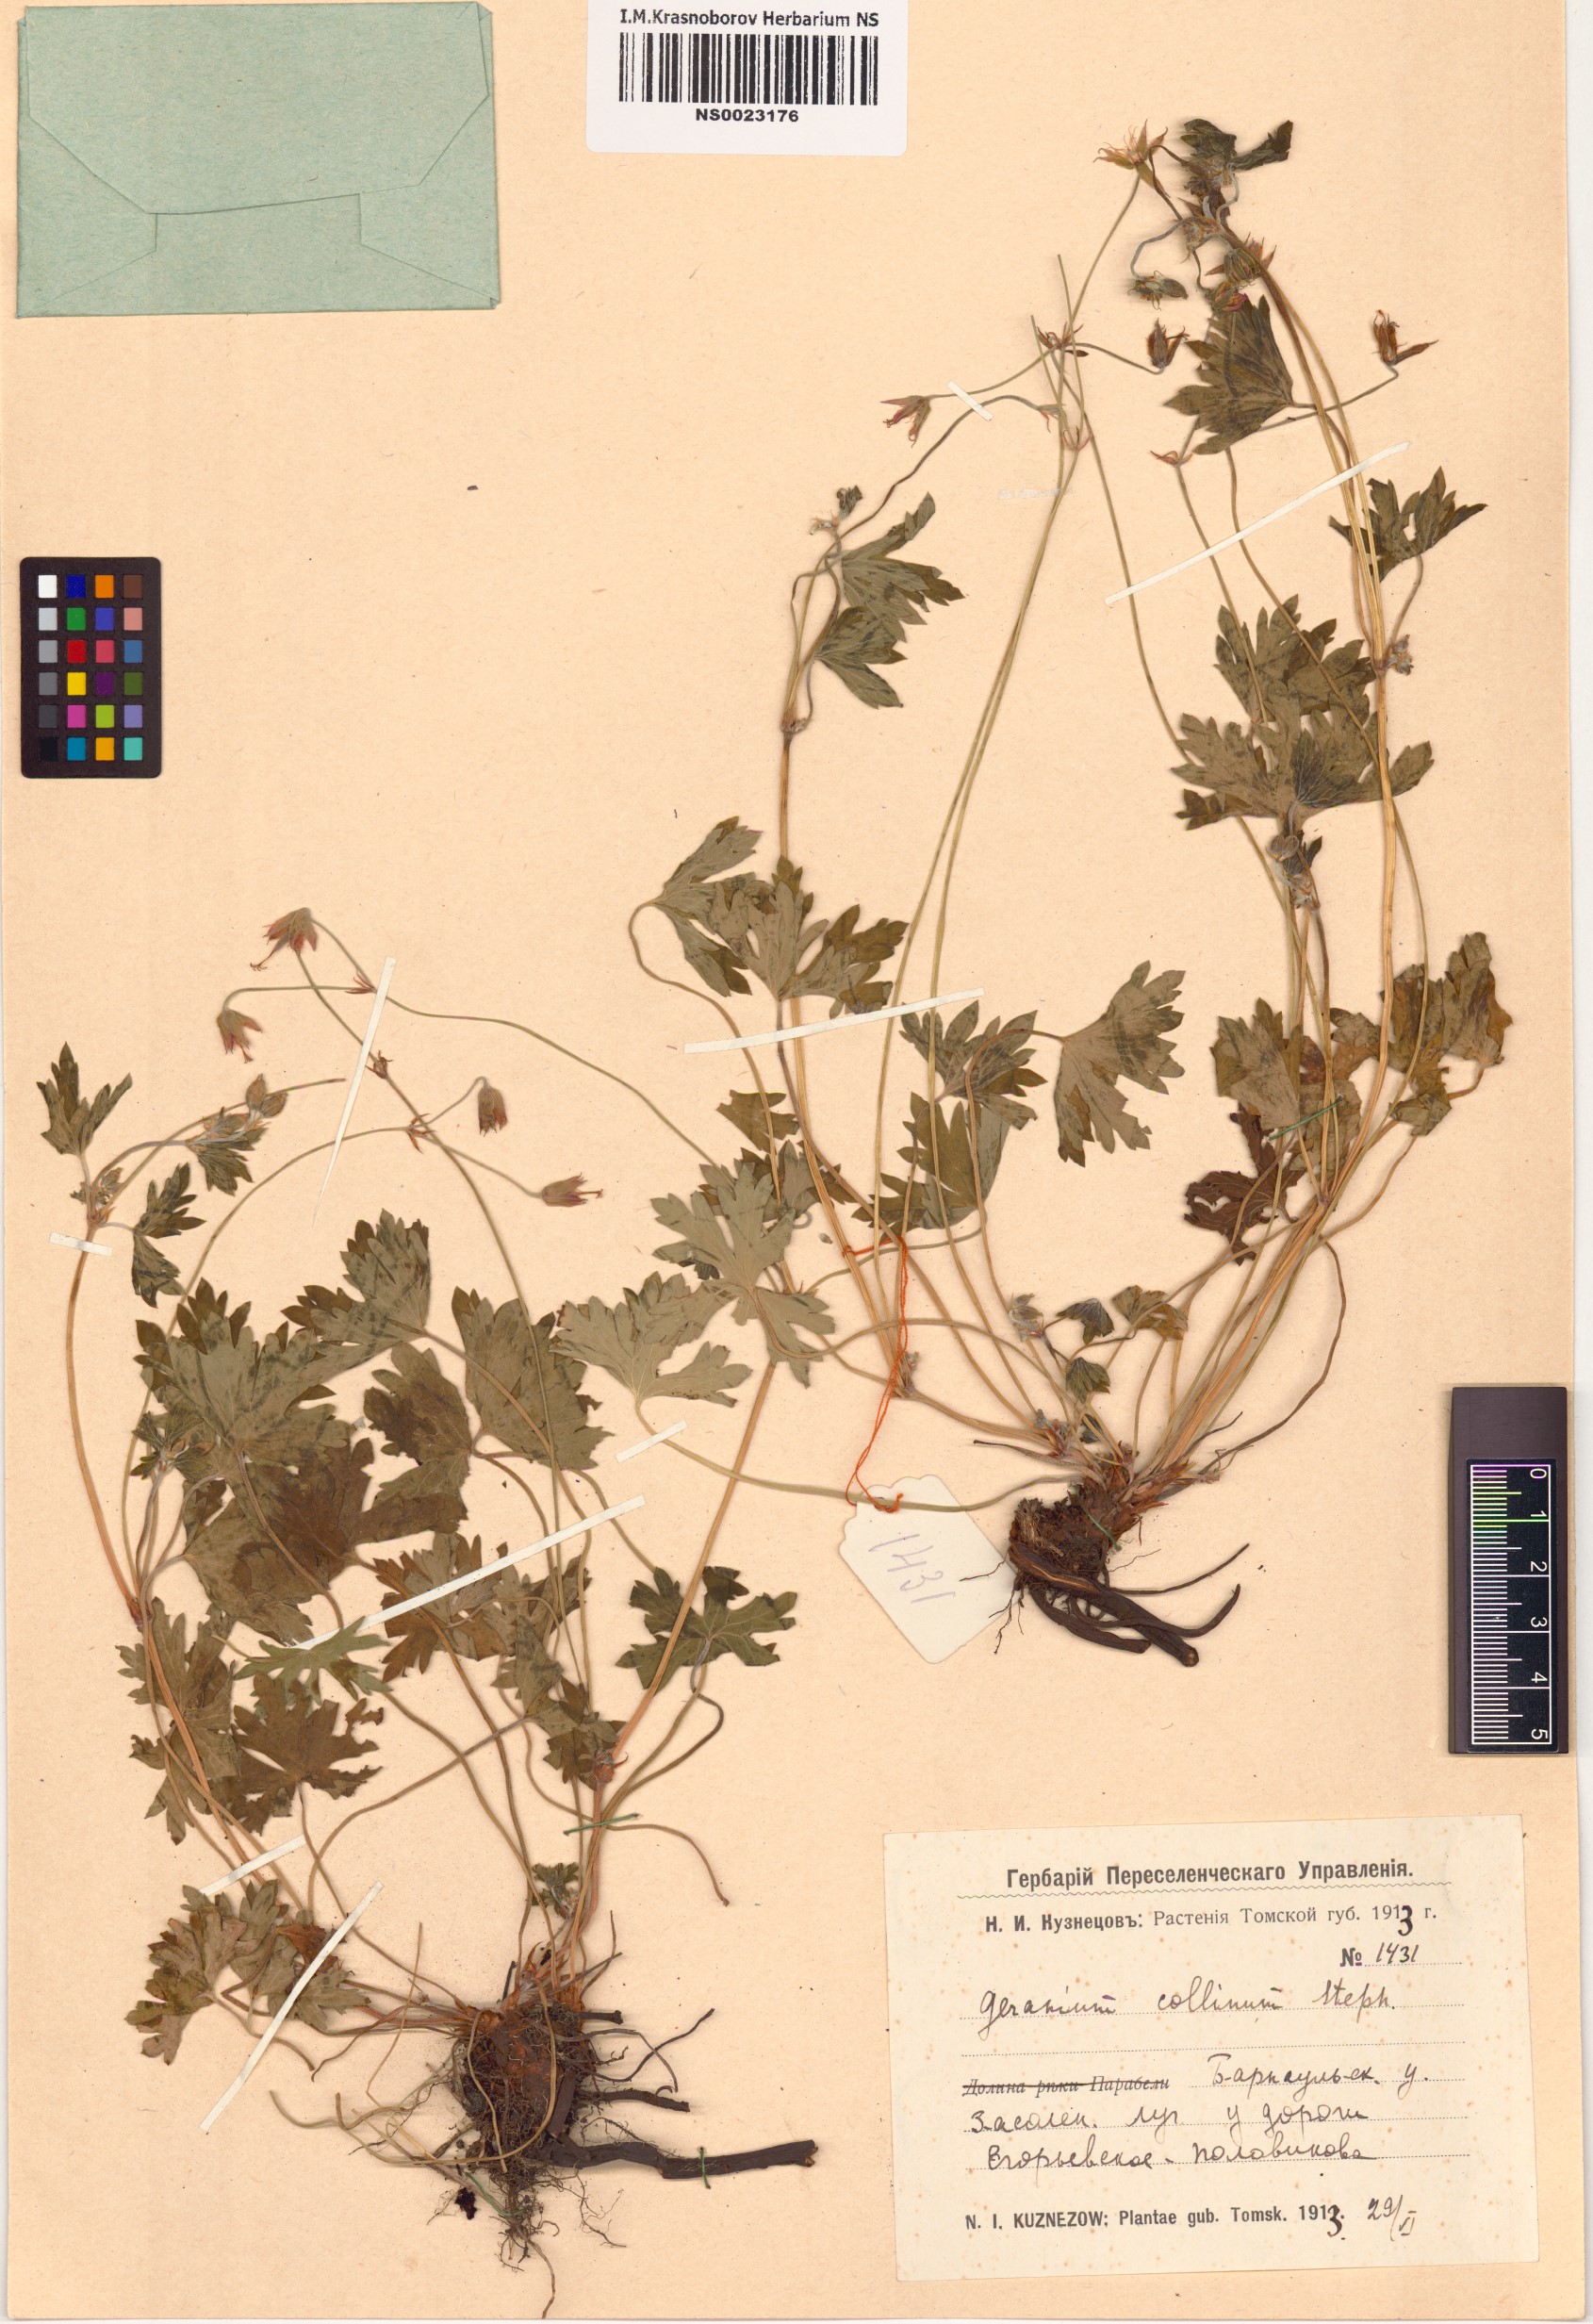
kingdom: Plantae
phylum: Tracheophyta
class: Magnoliopsida
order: Geraniales
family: Geraniaceae
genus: Geranium
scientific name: Geranium collinum
